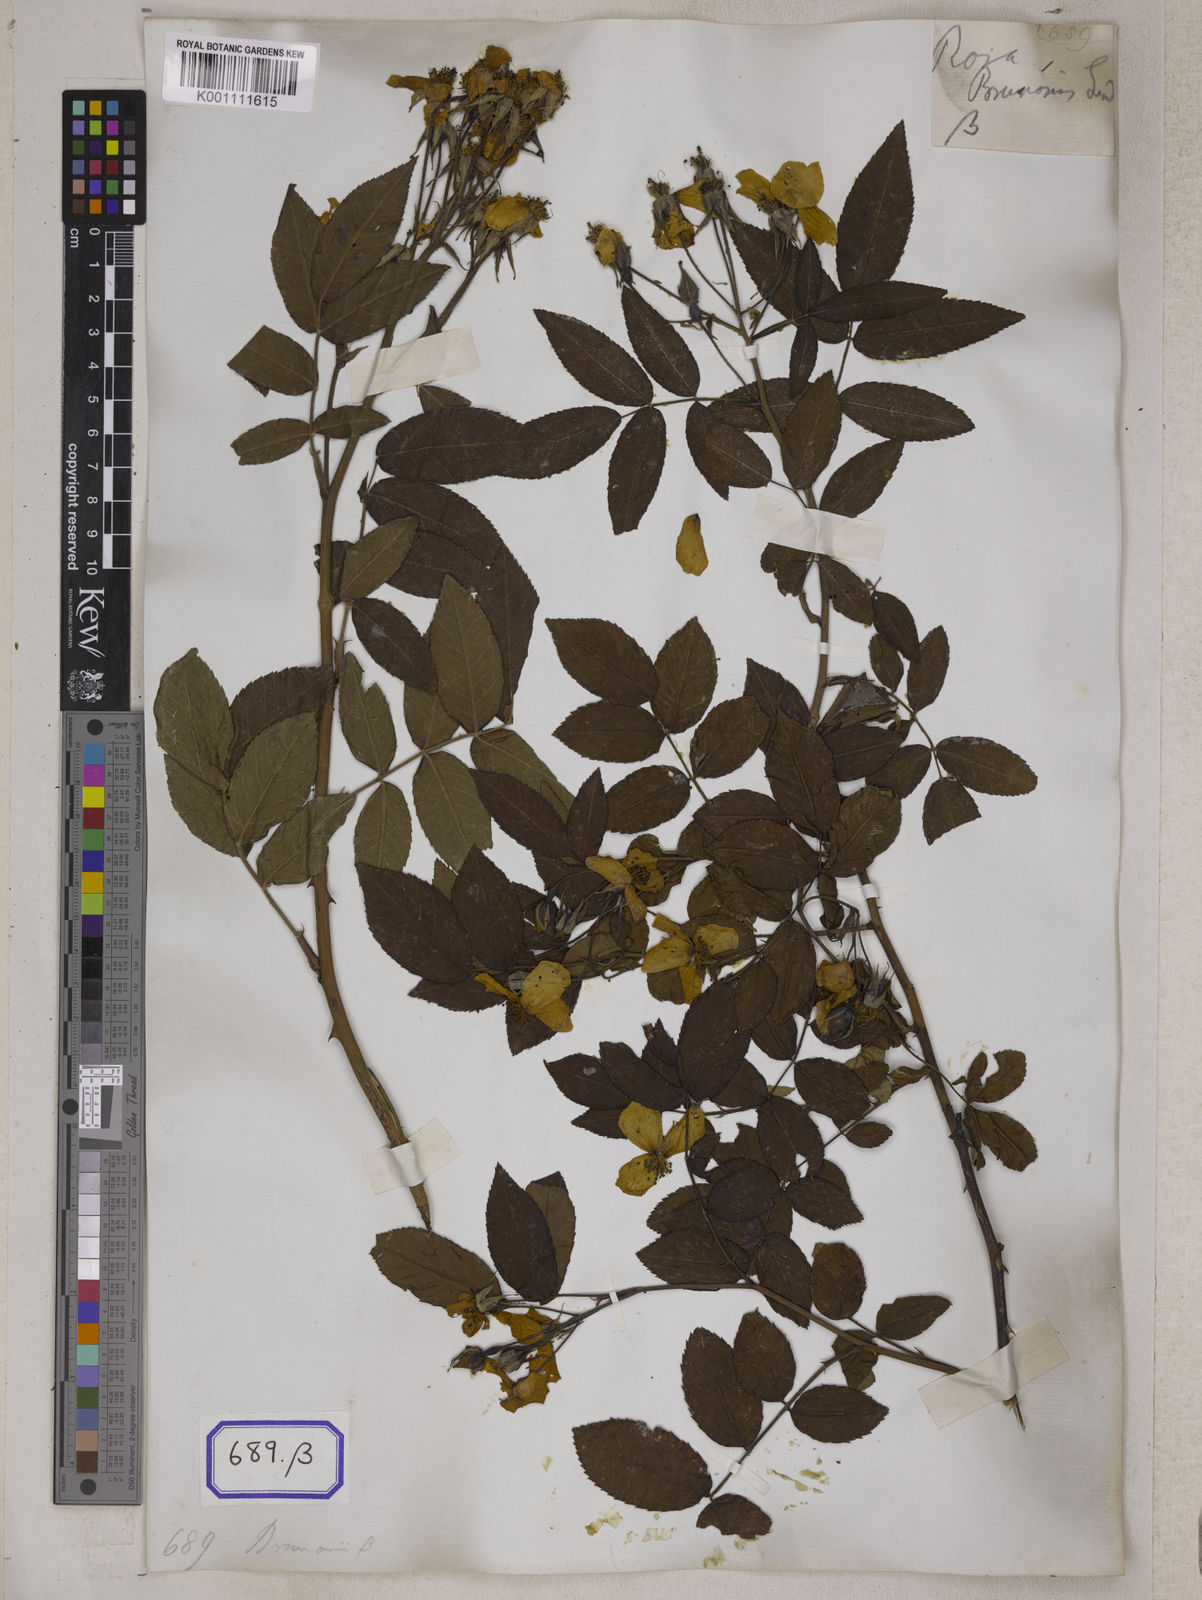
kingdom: Plantae
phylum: Tracheophyta
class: Magnoliopsida
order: Rosales
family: Rosaceae
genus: Rosa
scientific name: Rosa
